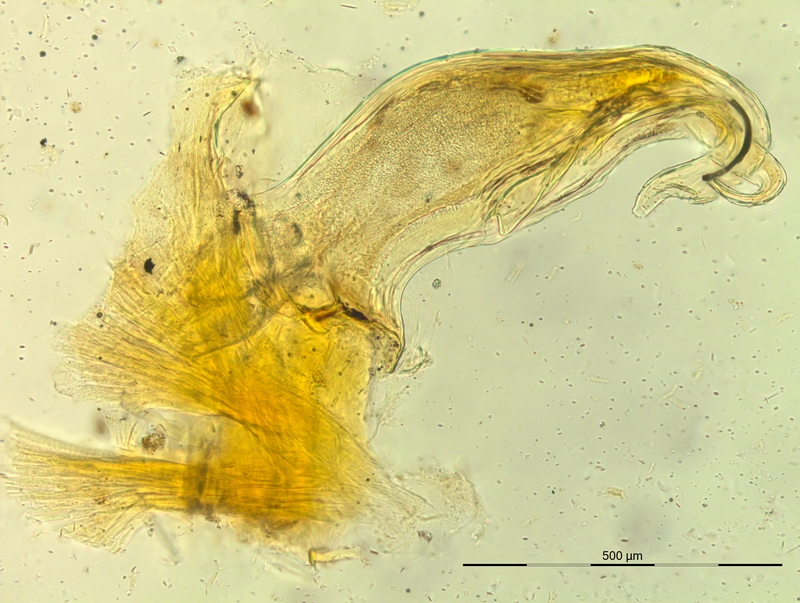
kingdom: Animalia
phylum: Arthropoda
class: Diplopoda
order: Chordeumatida
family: Craspedosomatidae
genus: Bergamosoma
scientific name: Bergamosoma sevini
